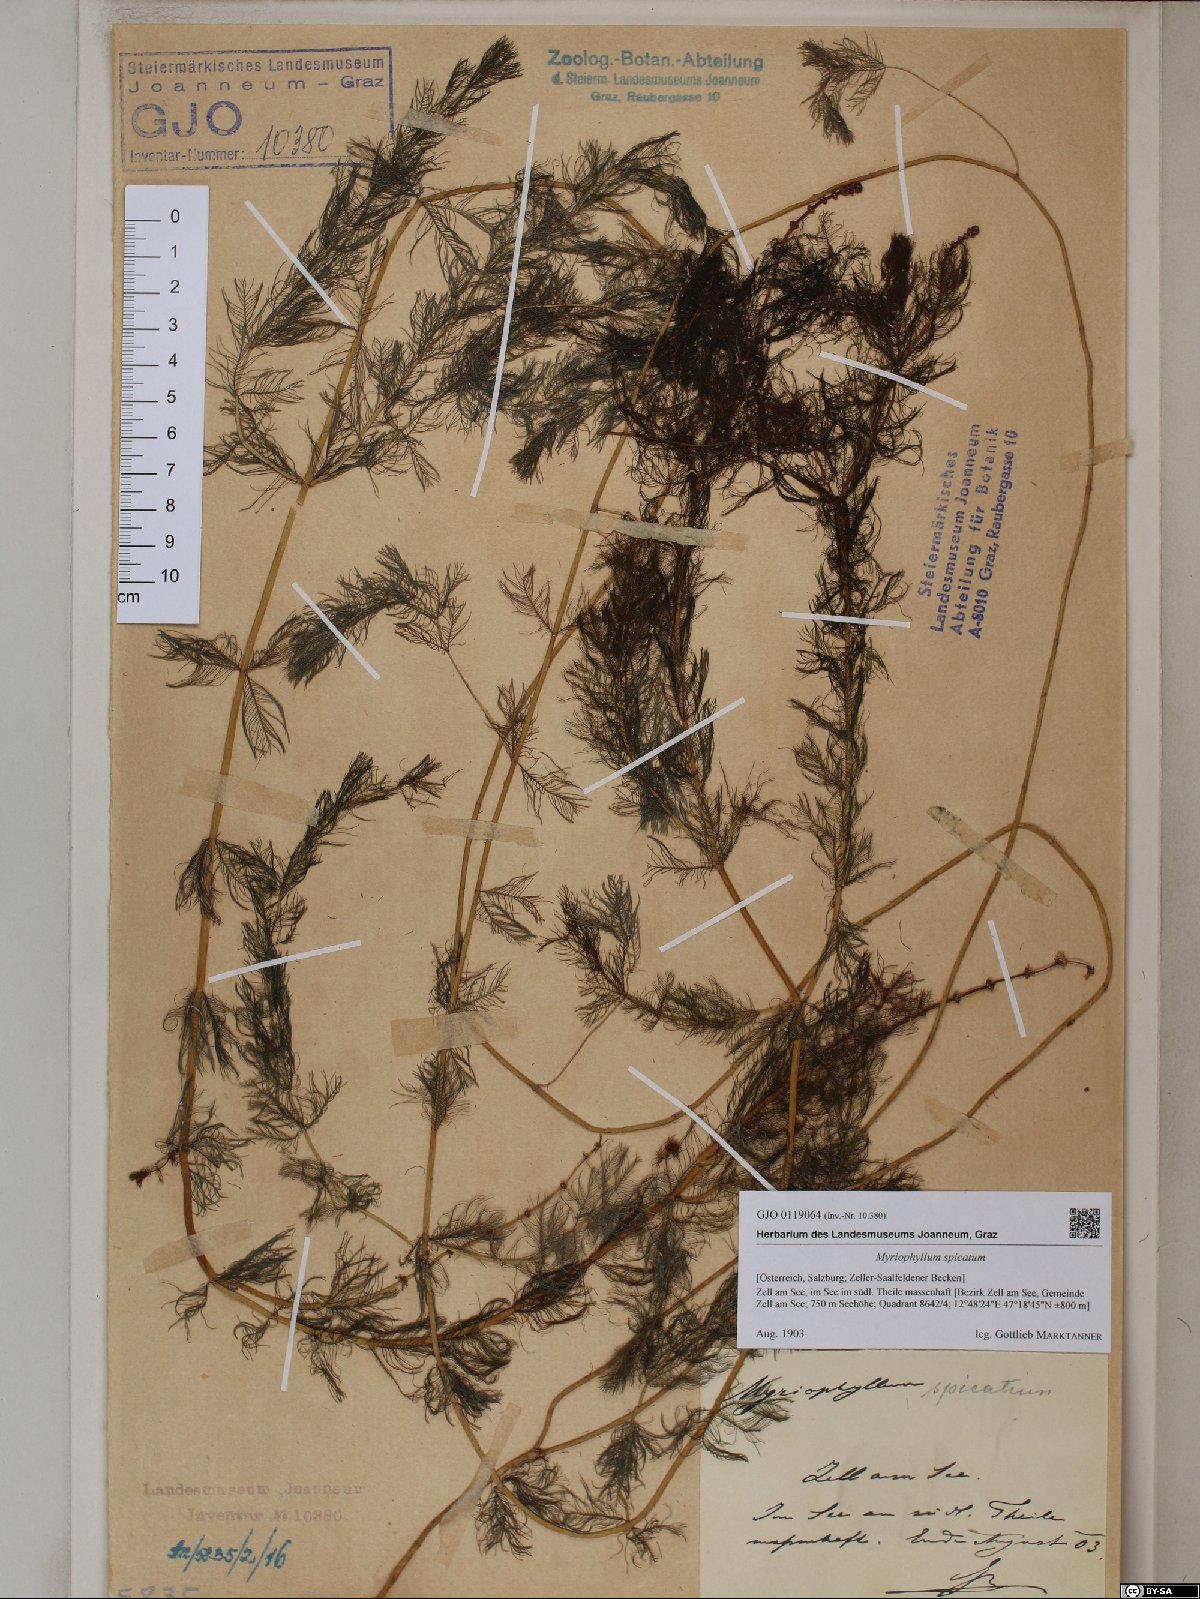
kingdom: Plantae
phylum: Tracheophyta
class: Magnoliopsida
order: Saxifragales
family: Haloragaceae
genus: Myriophyllum
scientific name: Myriophyllum spicatum
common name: Spiked water-milfoil
